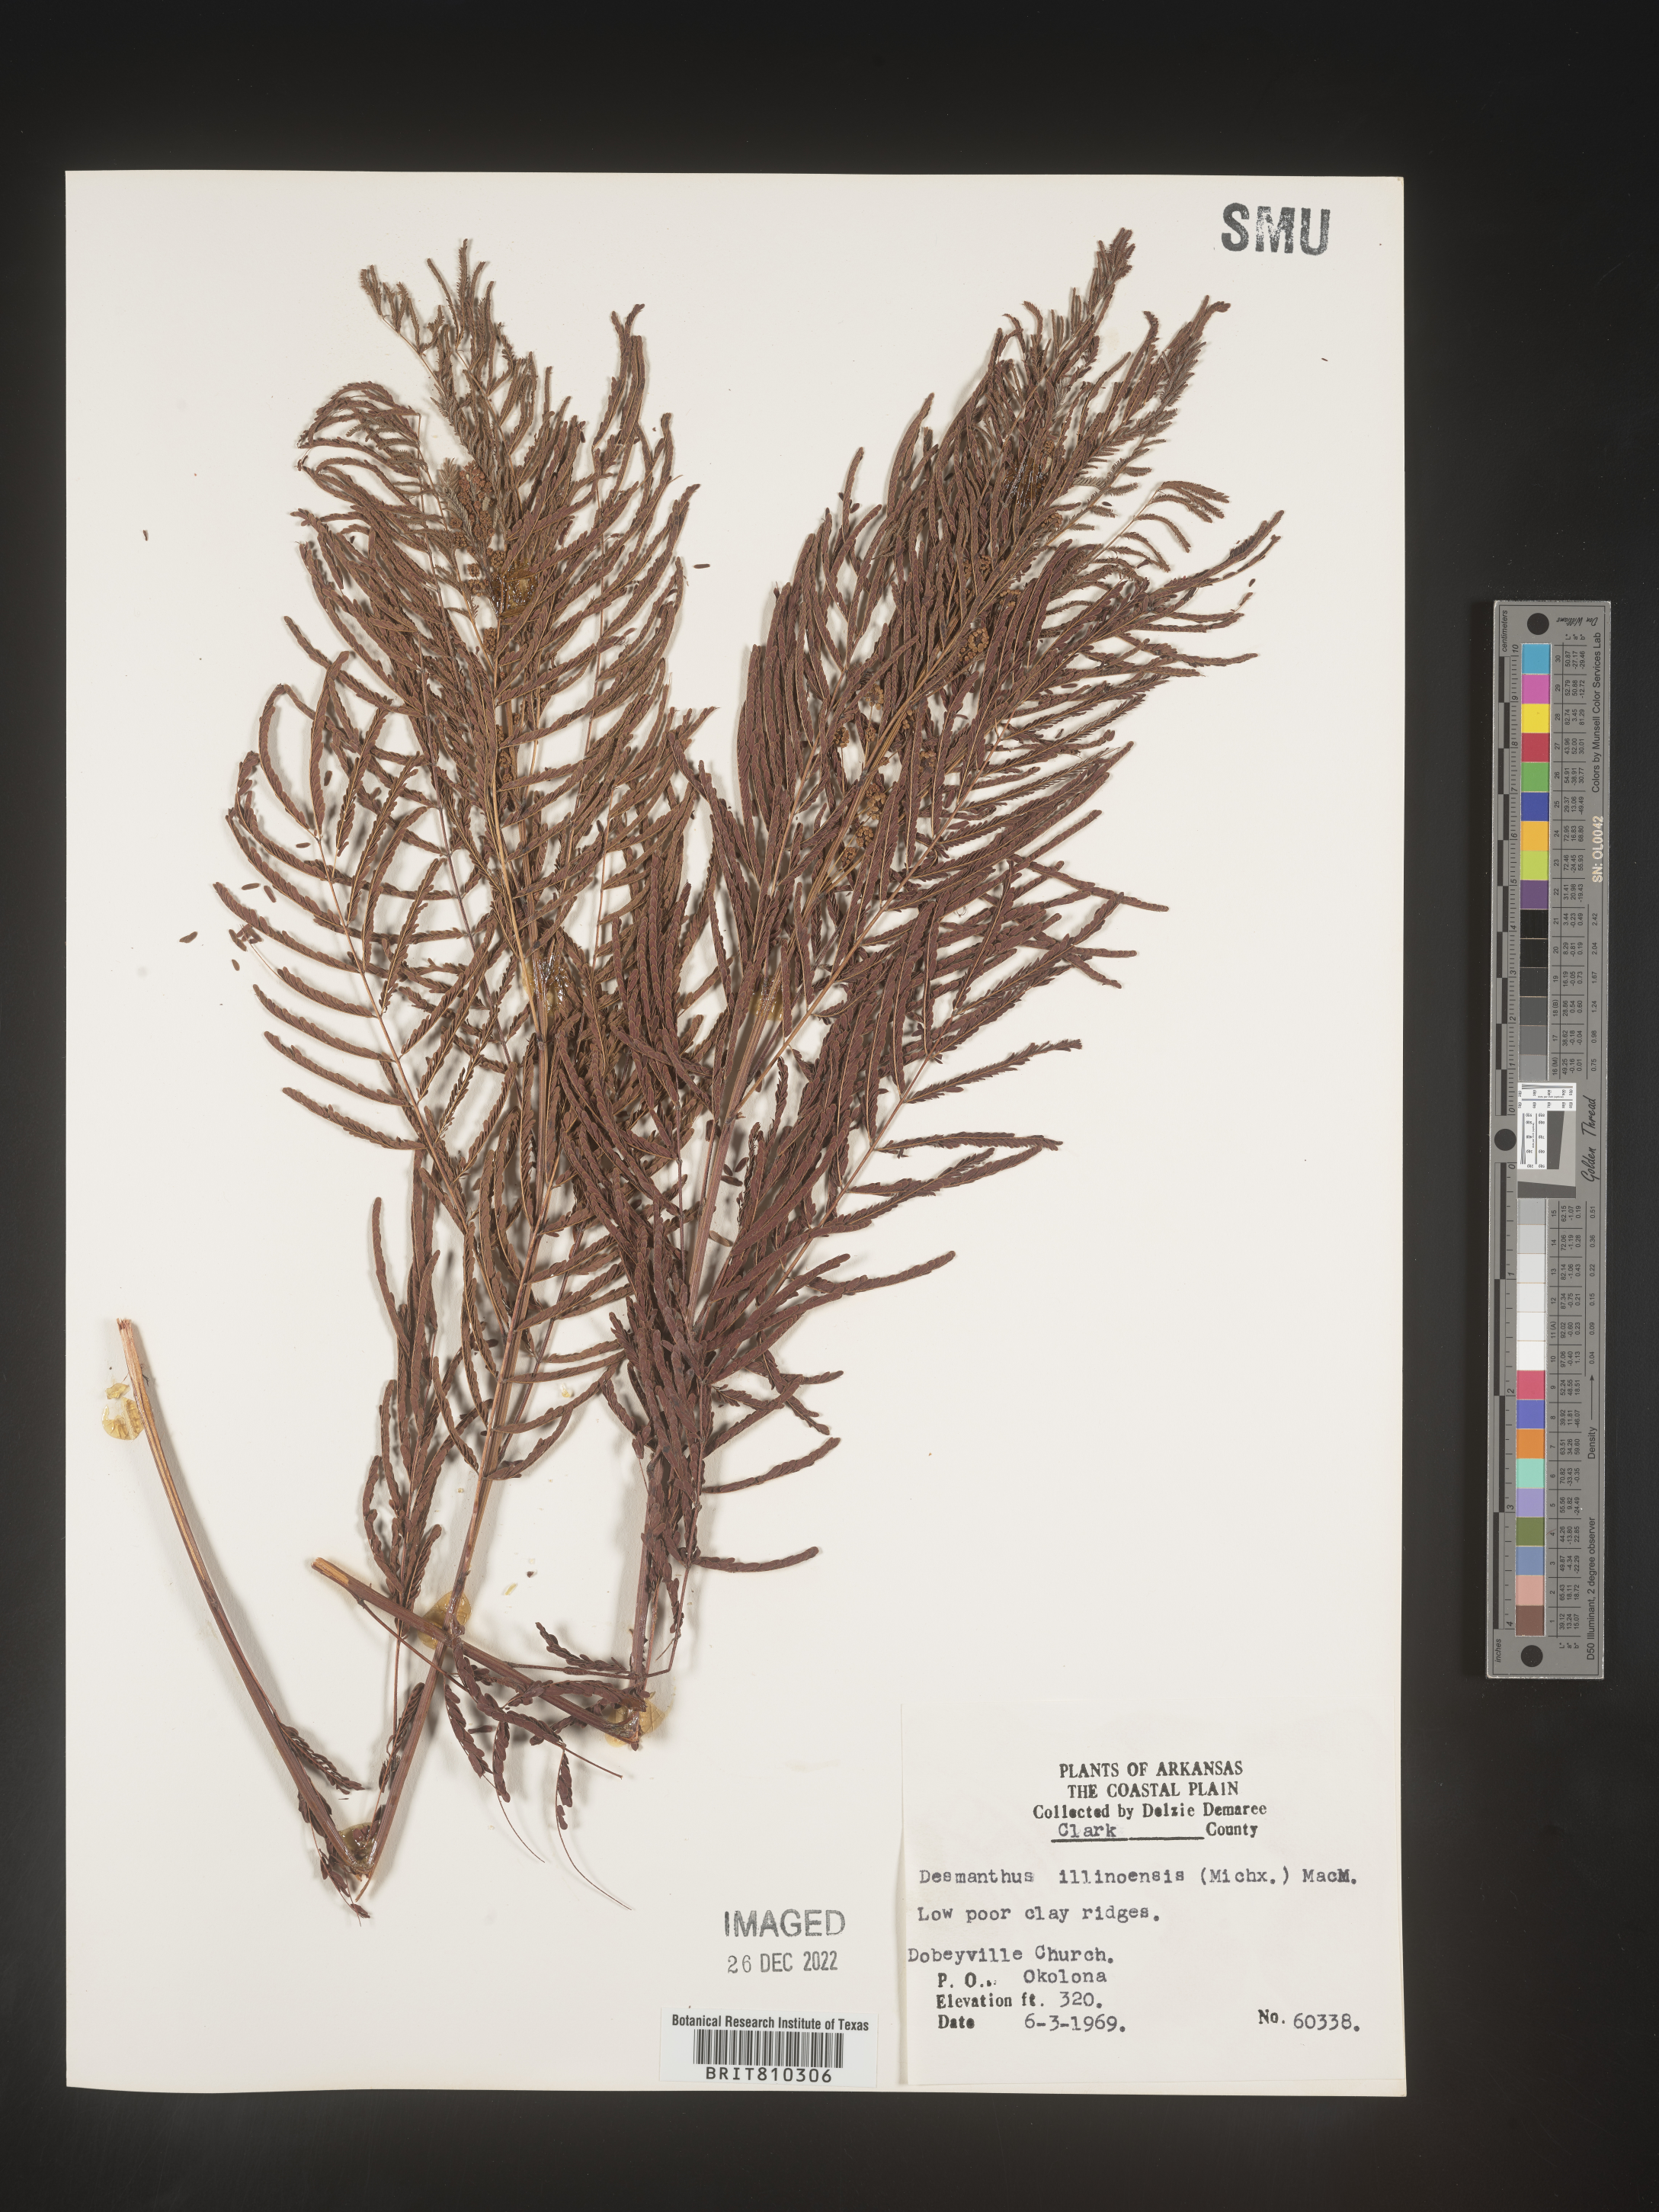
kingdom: Plantae
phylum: Tracheophyta
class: Magnoliopsida
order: Fabales
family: Fabaceae
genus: Acaciella
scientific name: Acaciella angustissima
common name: Prairie acacia
